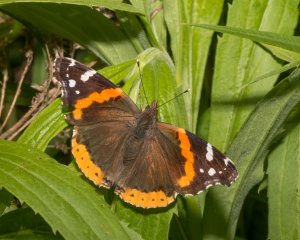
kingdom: Animalia
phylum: Arthropoda
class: Insecta
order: Lepidoptera
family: Nymphalidae
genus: Vanessa
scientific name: Vanessa atalanta
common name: Red Admiral
